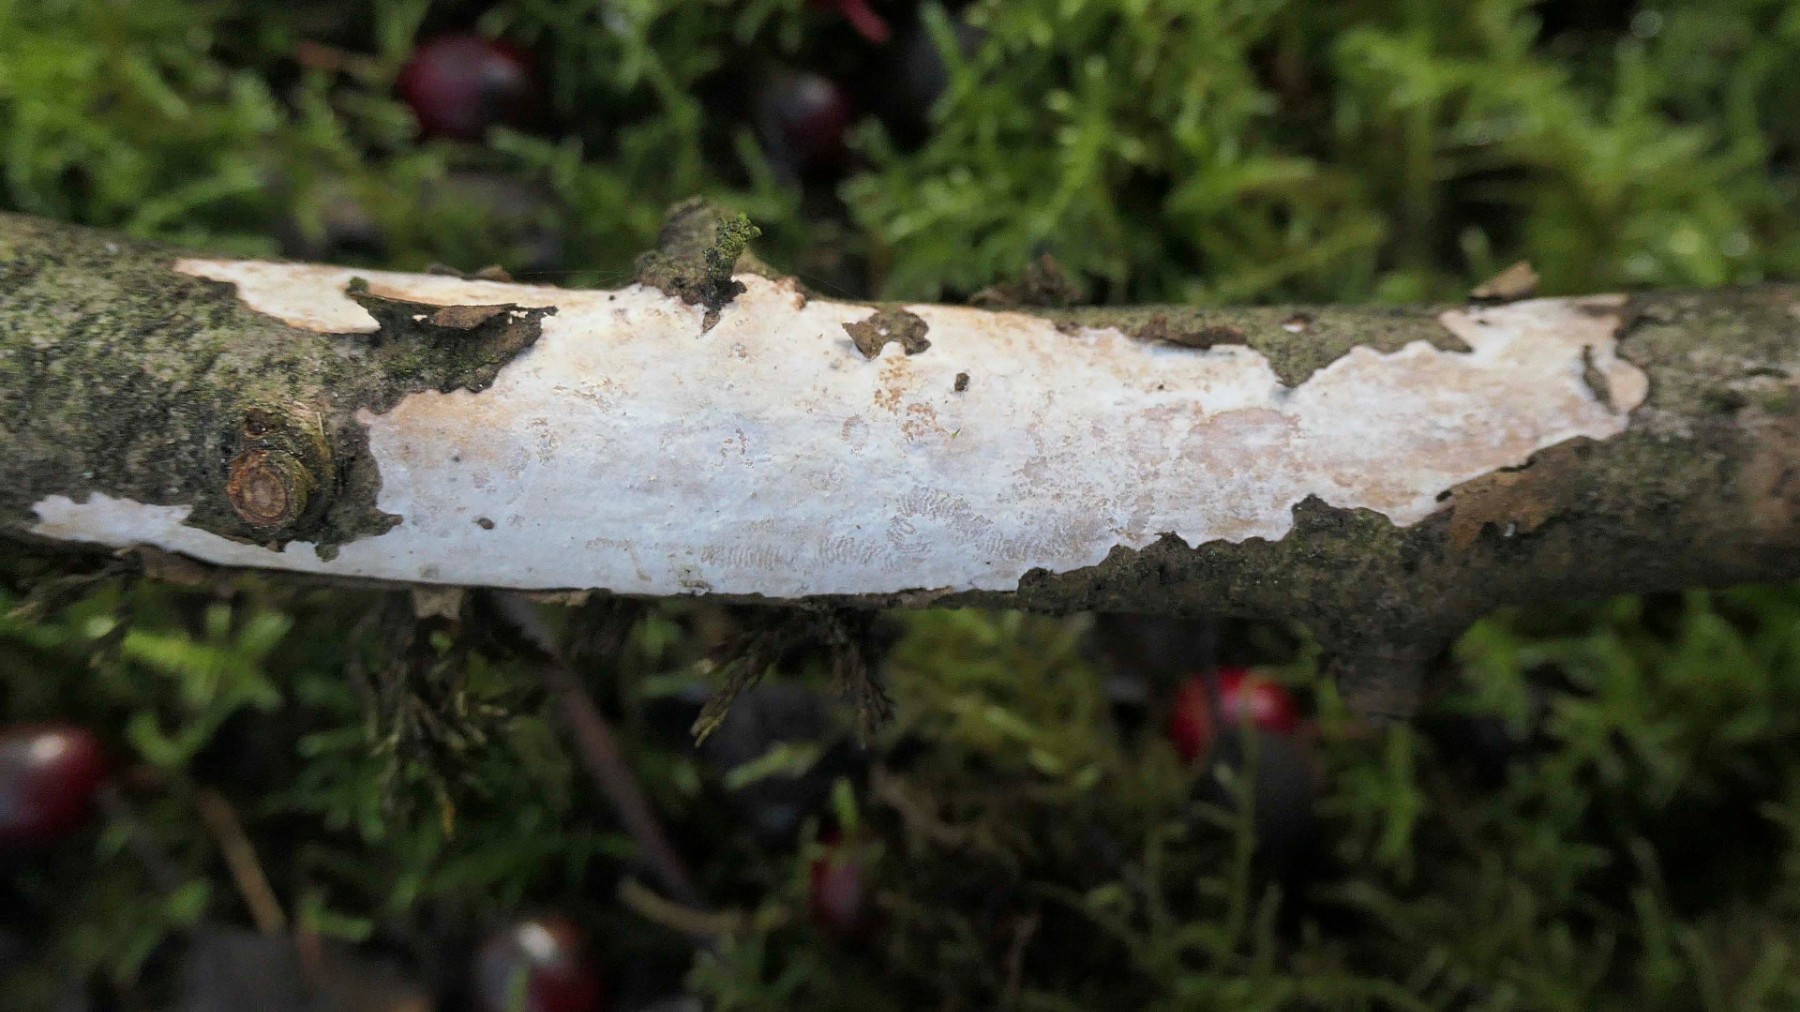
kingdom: Fungi
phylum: Basidiomycota
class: Agaricomycetes
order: Corticiales
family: Vuilleminiaceae
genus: Vuilleminia
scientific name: Vuilleminia cystidiata
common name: tjørne-barksprænger
